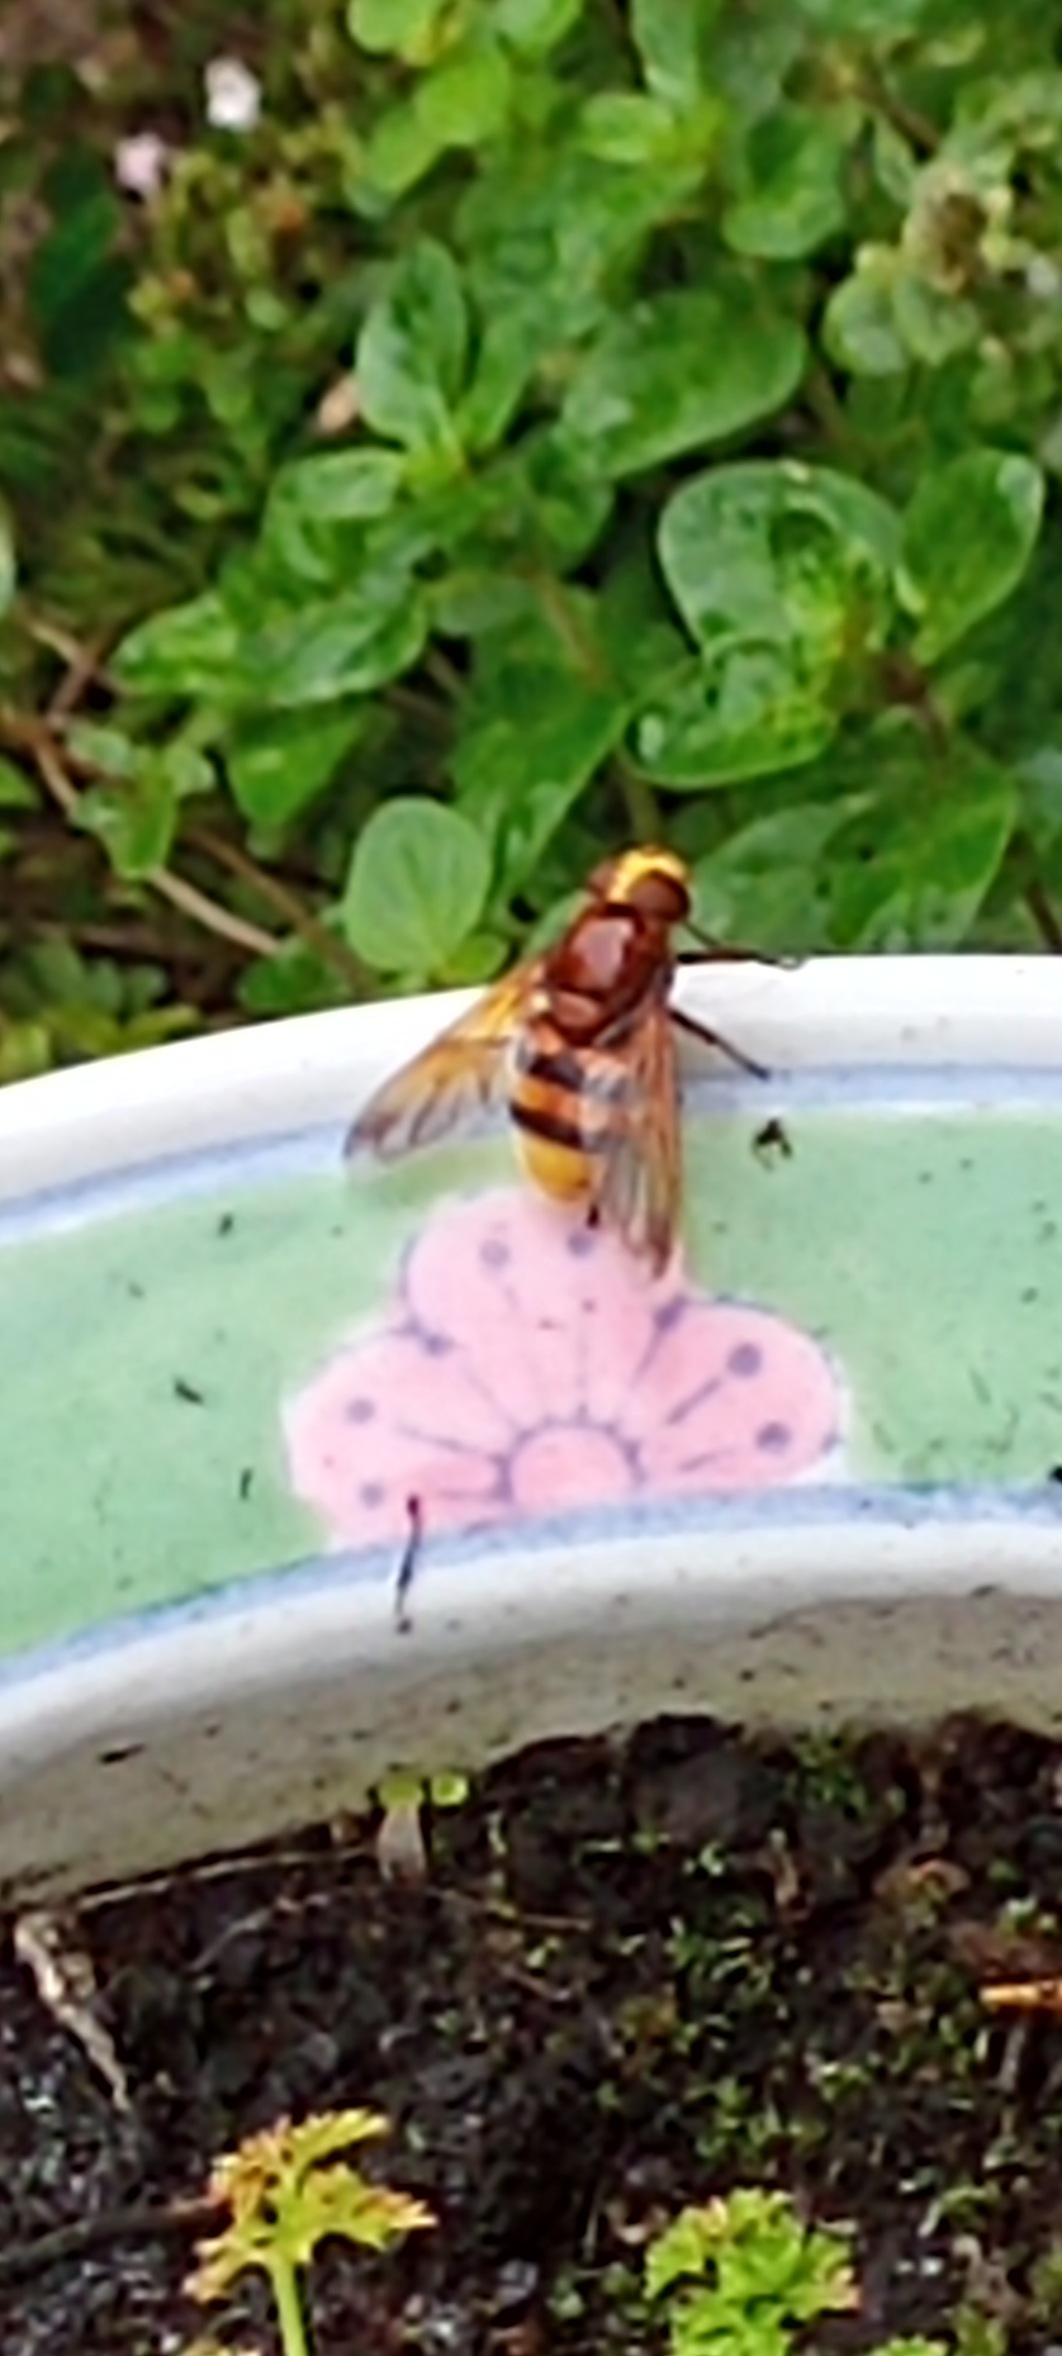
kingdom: Animalia
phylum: Arthropoda
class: Insecta
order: Diptera
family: Syrphidae
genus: Volucella
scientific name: Volucella zonaria
